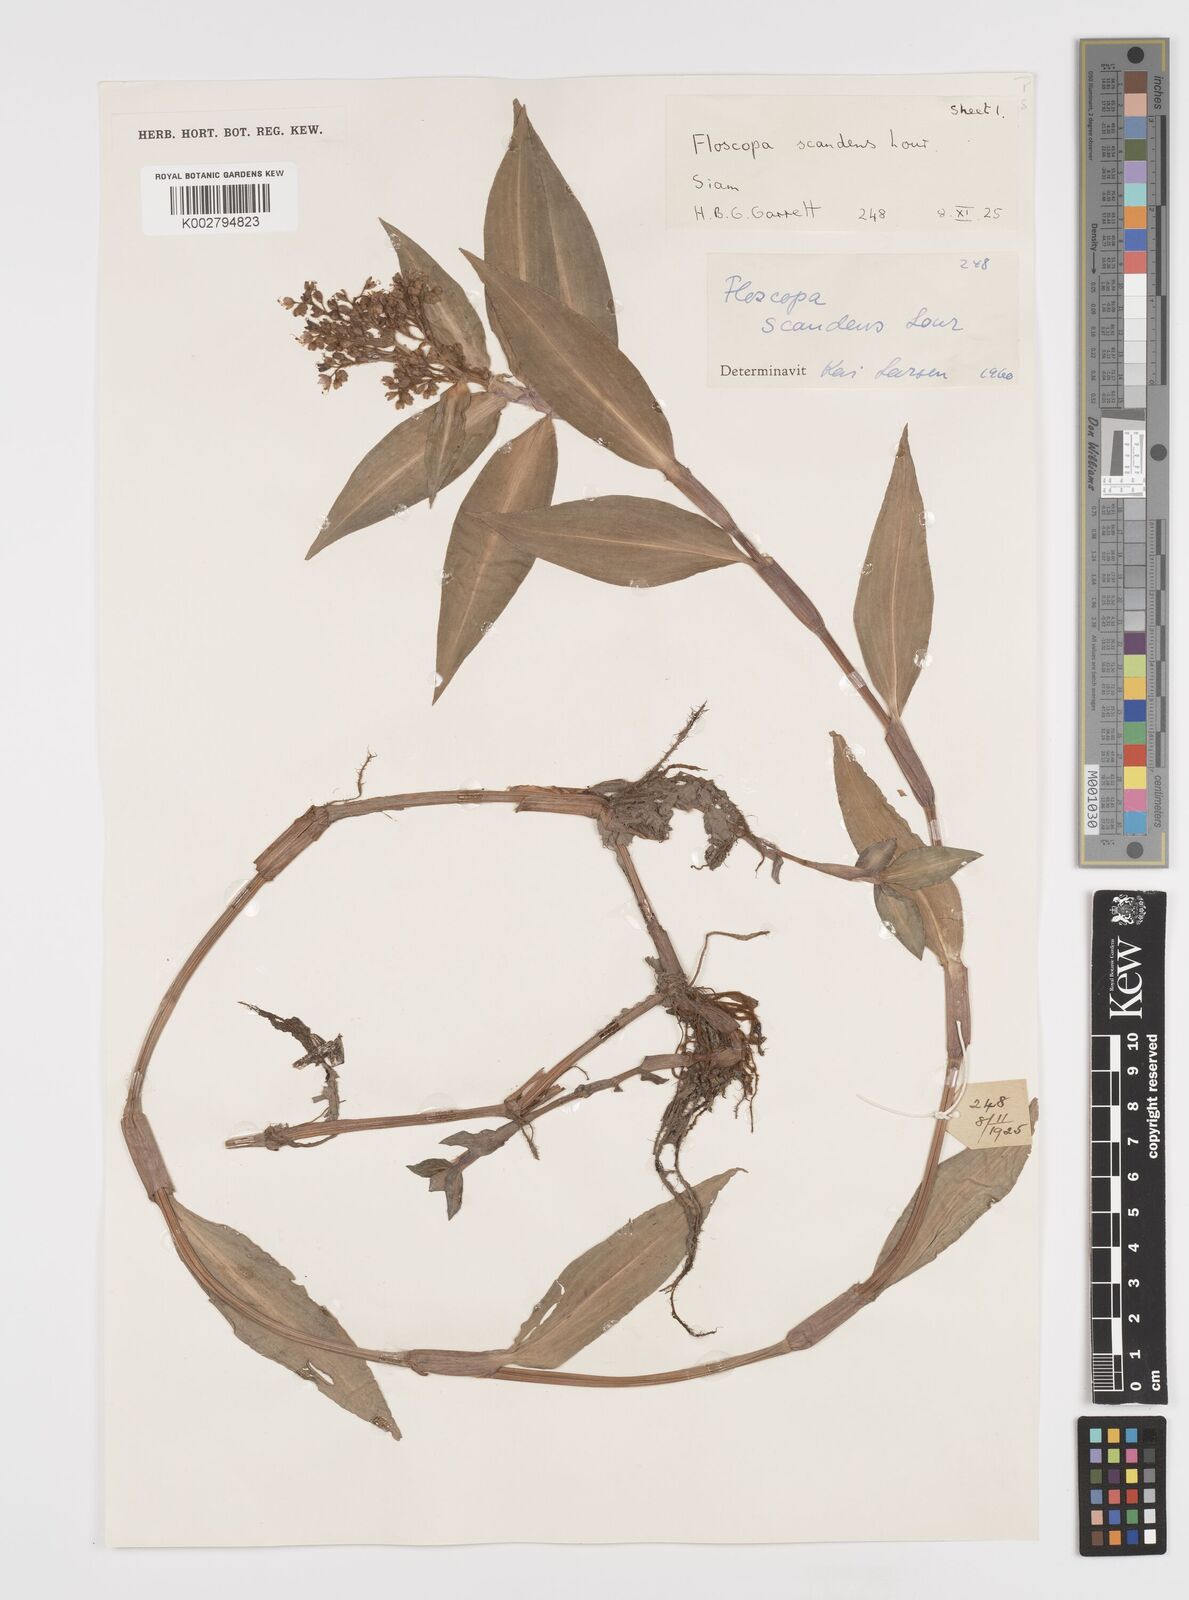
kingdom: Plantae
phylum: Tracheophyta
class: Liliopsida
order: Commelinales
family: Commelinaceae
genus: Floscopa
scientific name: Floscopa scandens
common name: Climbing flower cup
